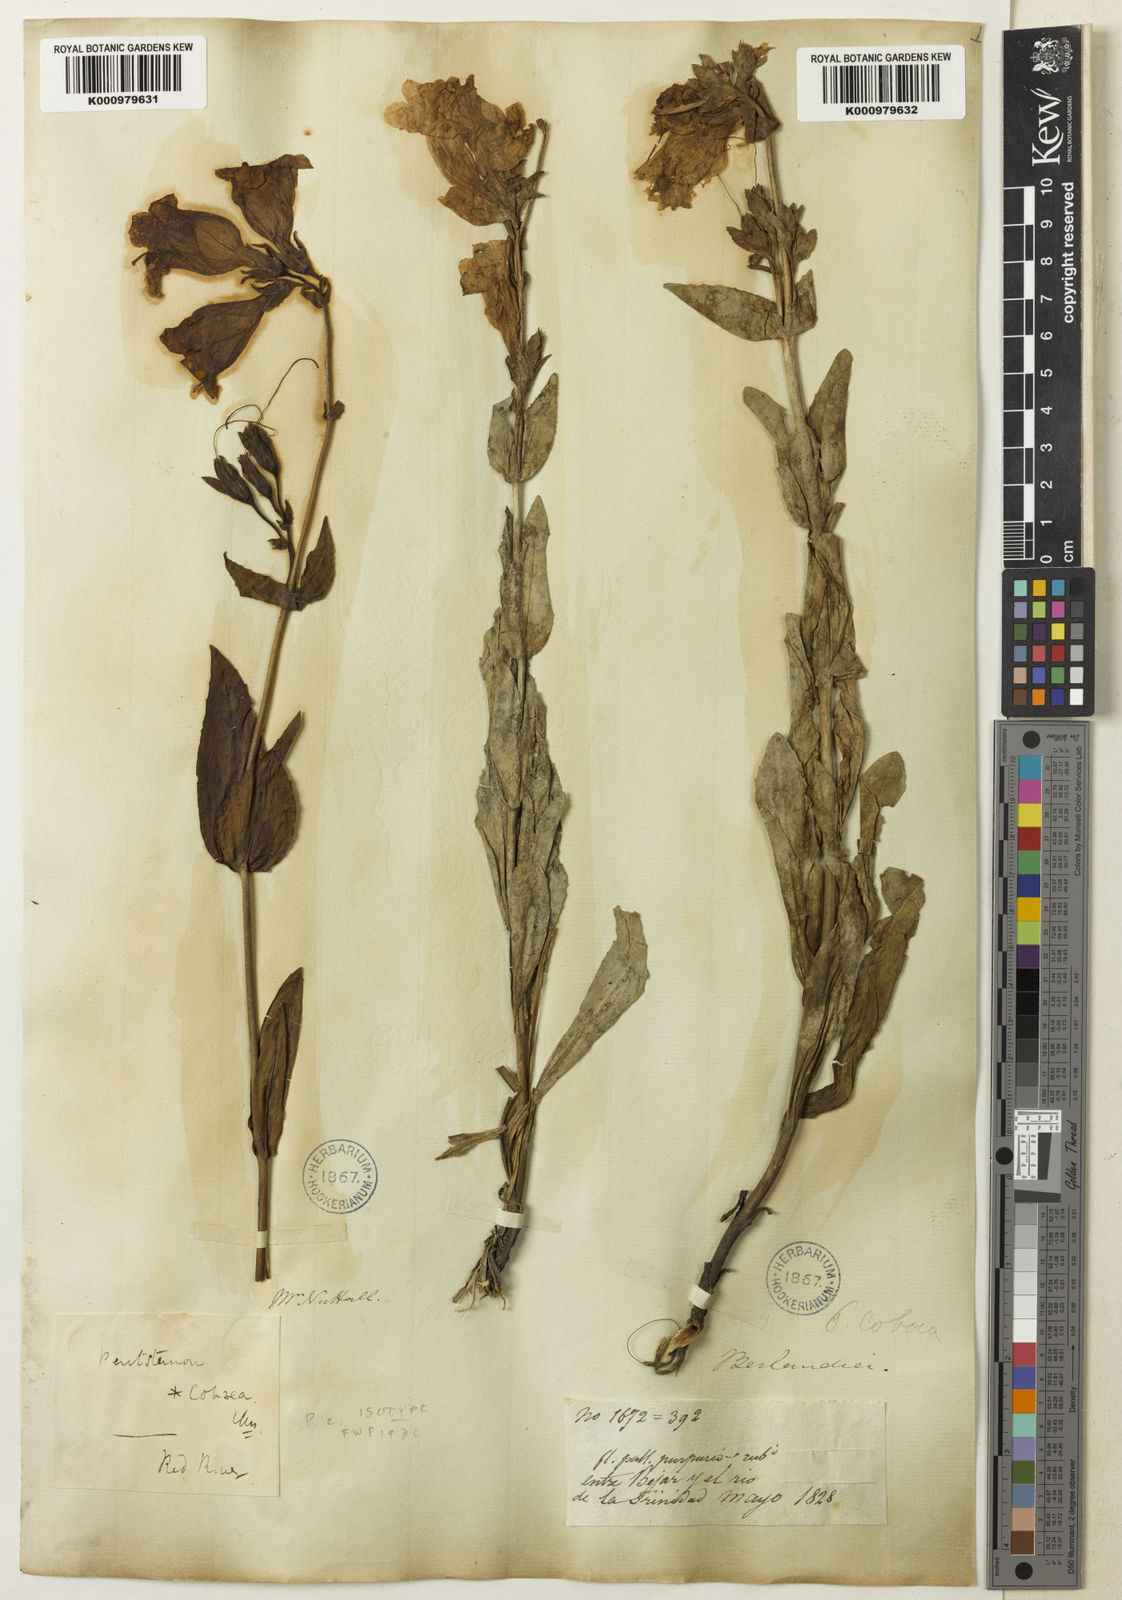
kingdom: Plantae
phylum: Tracheophyta
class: Magnoliopsida
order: Lamiales
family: Plantaginaceae
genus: Penstemon
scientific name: Penstemon cobaea
